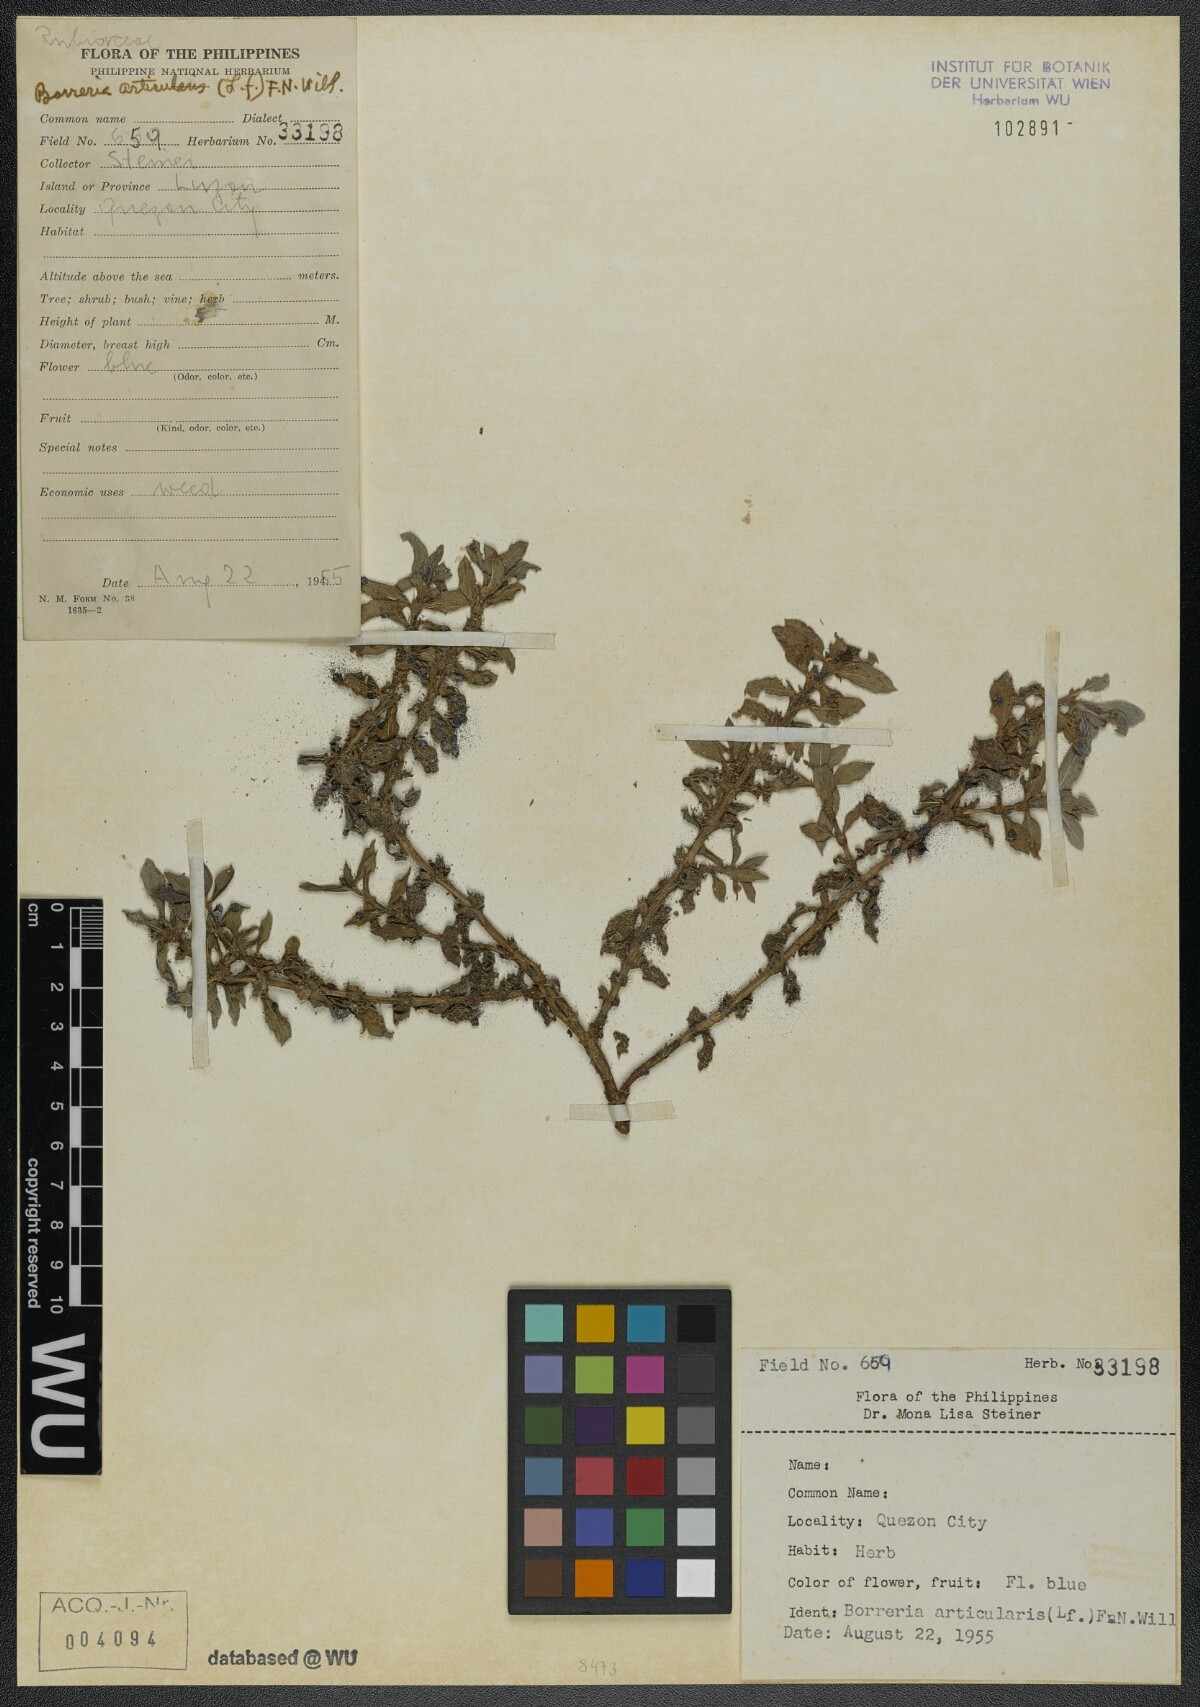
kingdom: Plantae
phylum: Tracheophyta
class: Magnoliopsida
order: Gentianales
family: Rubiaceae
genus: Spermacoce
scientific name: Spermacoce articularis
